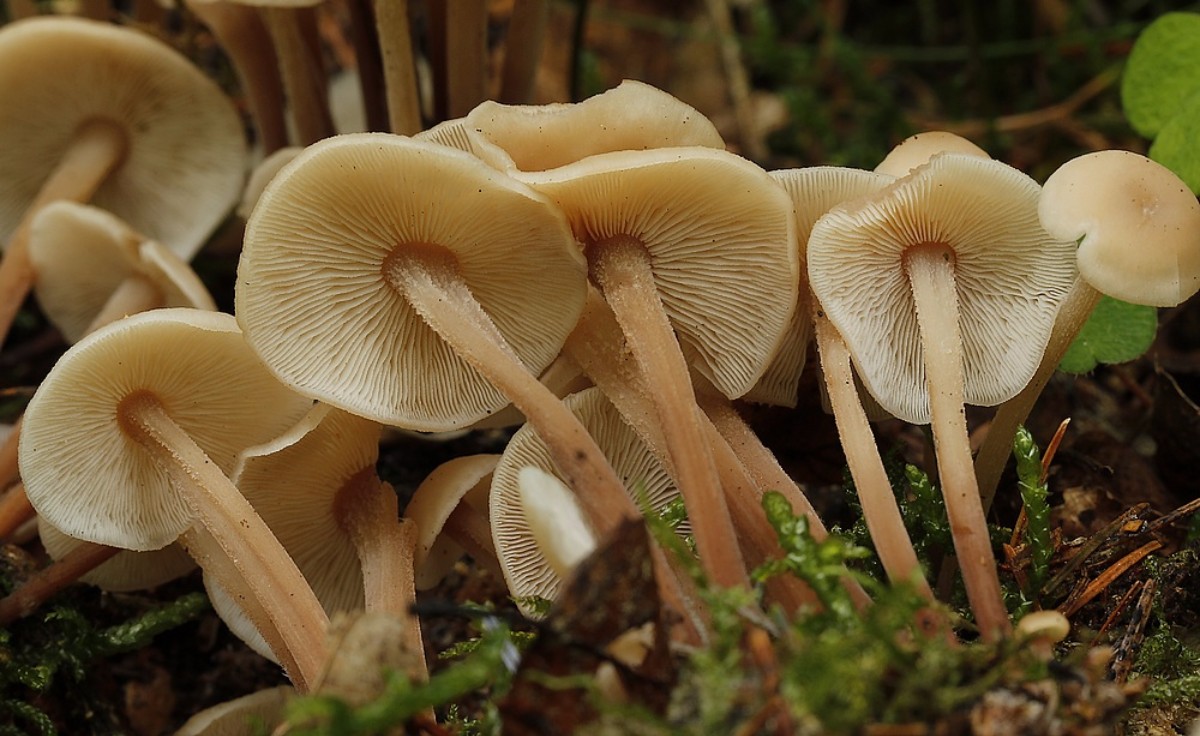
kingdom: Fungi
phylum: Basidiomycota
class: Agaricomycetes
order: Agaricales
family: Omphalotaceae
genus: Collybiopsis
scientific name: Collybiopsis confluens
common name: knippe-fladhat
